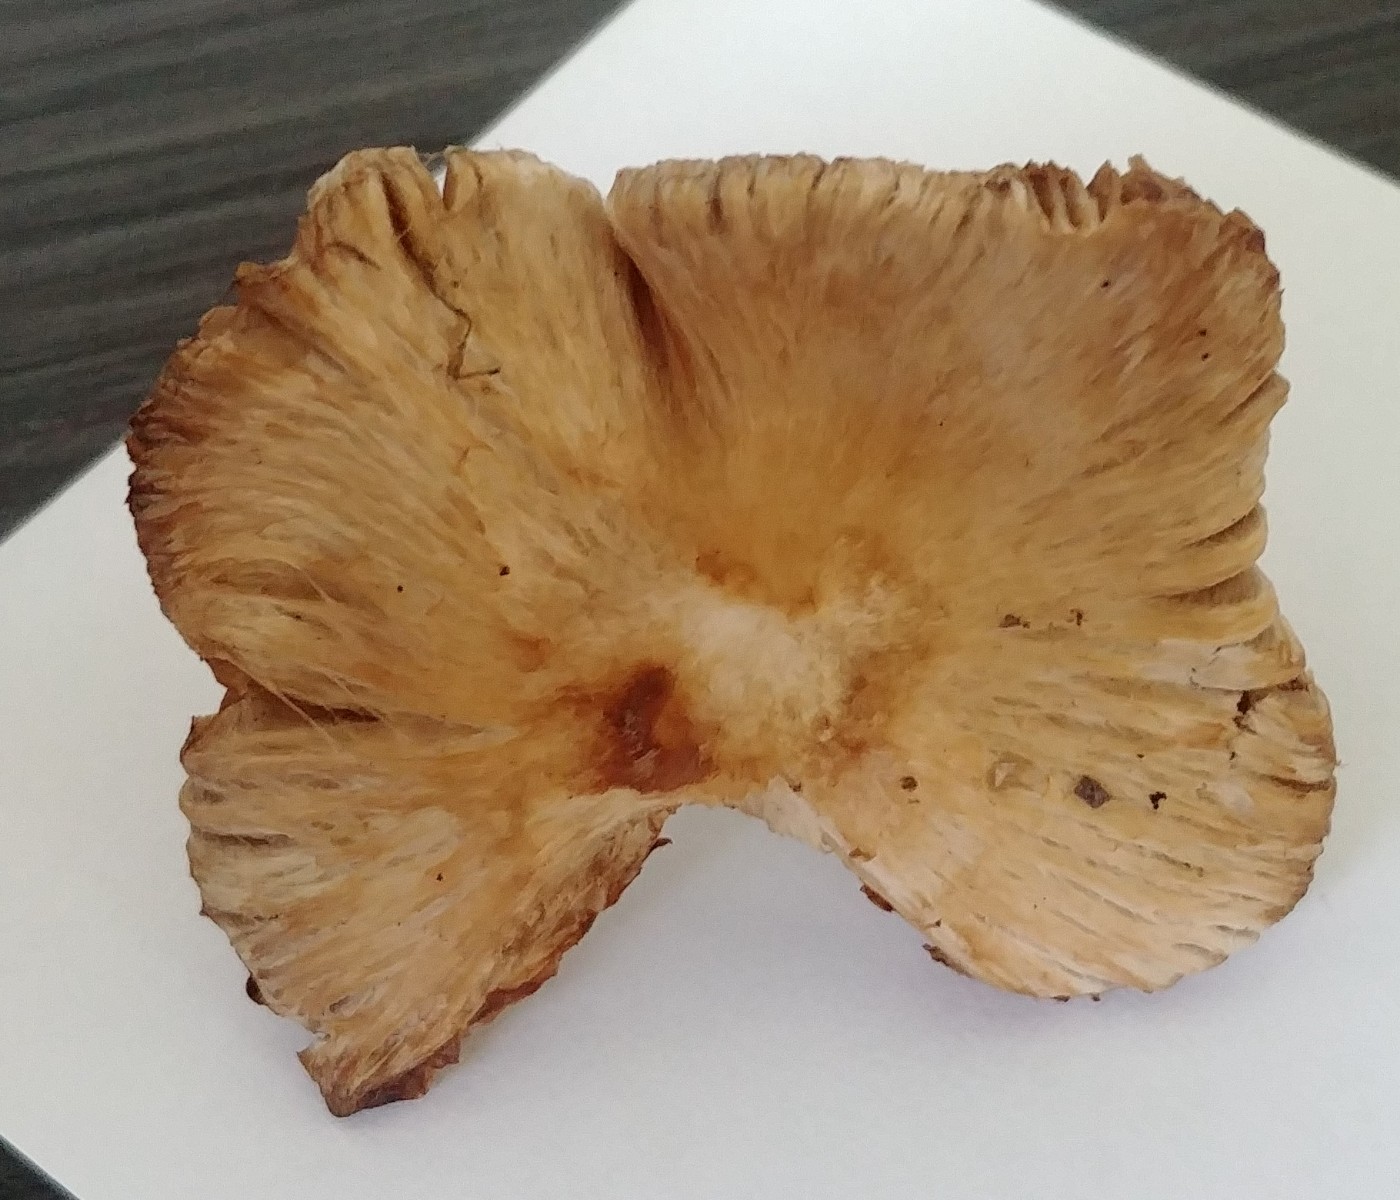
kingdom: Fungi
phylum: Basidiomycota
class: Agaricomycetes
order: Agaricales
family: Inocybaceae
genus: Inocybe
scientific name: Inocybe
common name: trævlhat
